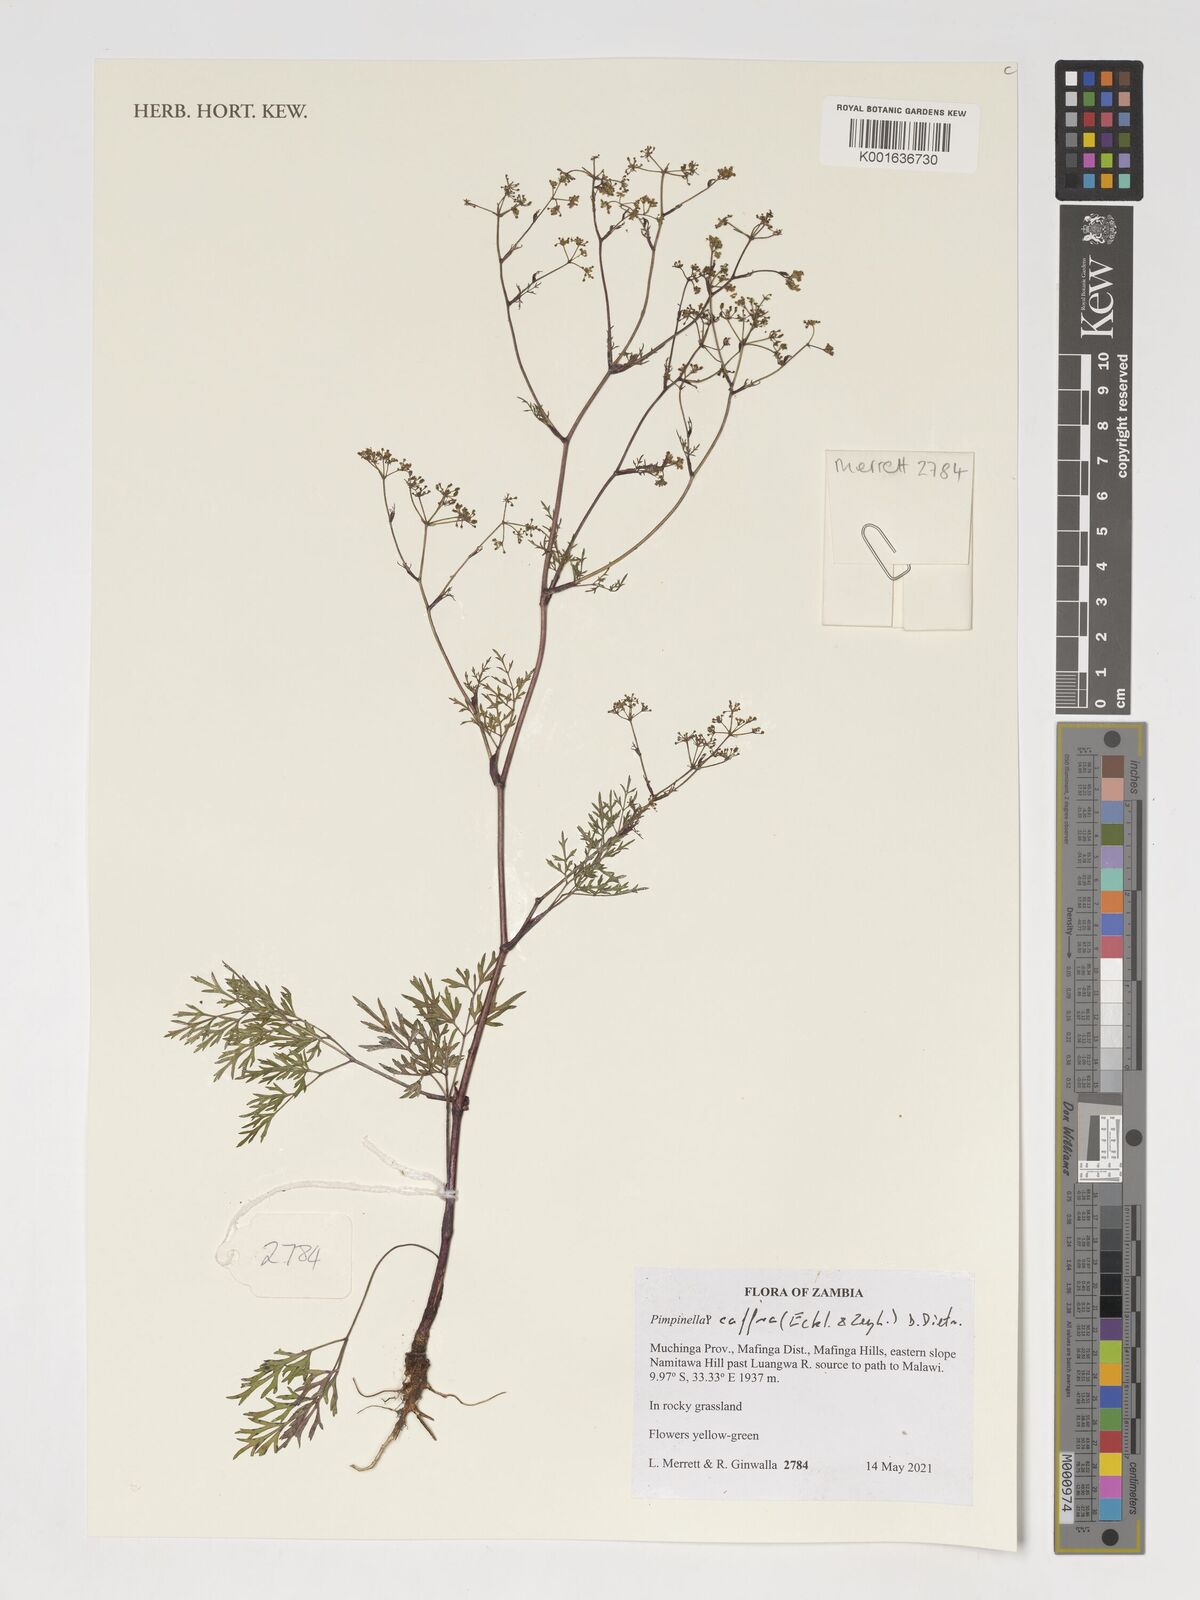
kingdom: Plantae
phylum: Tracheophyta
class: Magnoliopsida
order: Apiales
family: Apiaceae
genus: Pimpinella
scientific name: Pimpinella caffra
